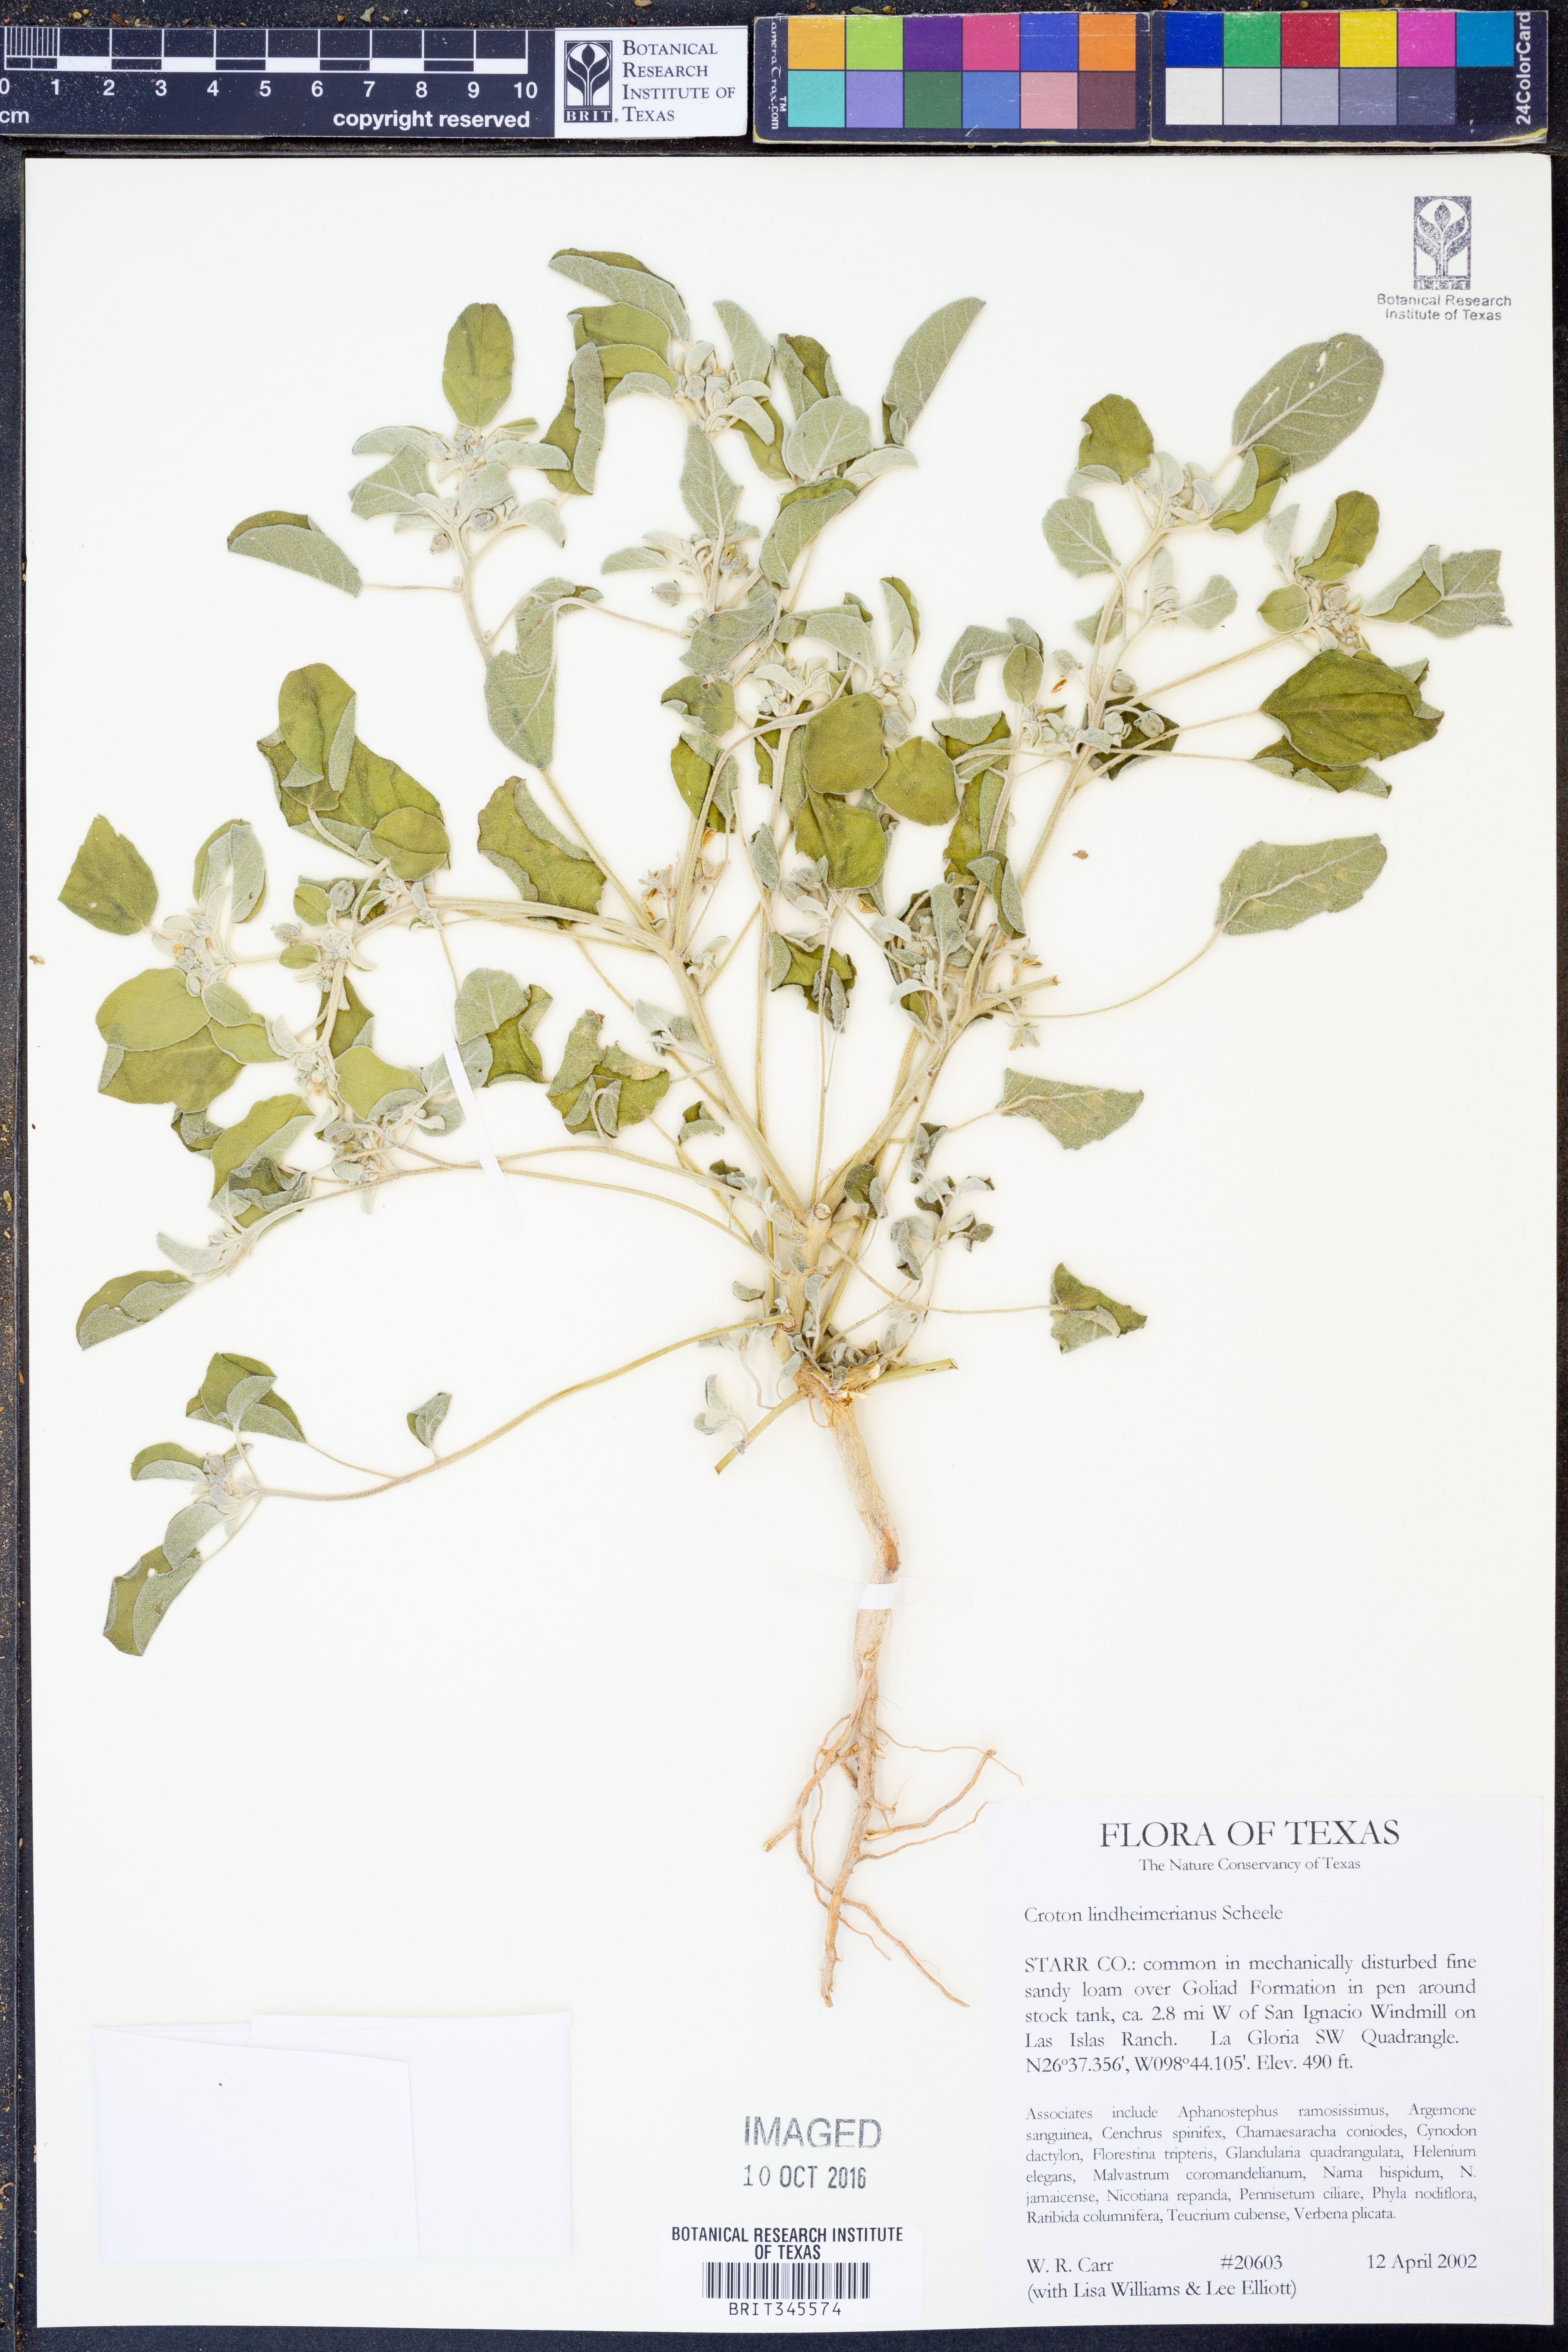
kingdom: Plantae
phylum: Tracheophyta
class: Magnoliopsida
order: Malpighiales
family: Euphorbiaceae
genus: Croton
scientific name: Croton lindheimerianus
